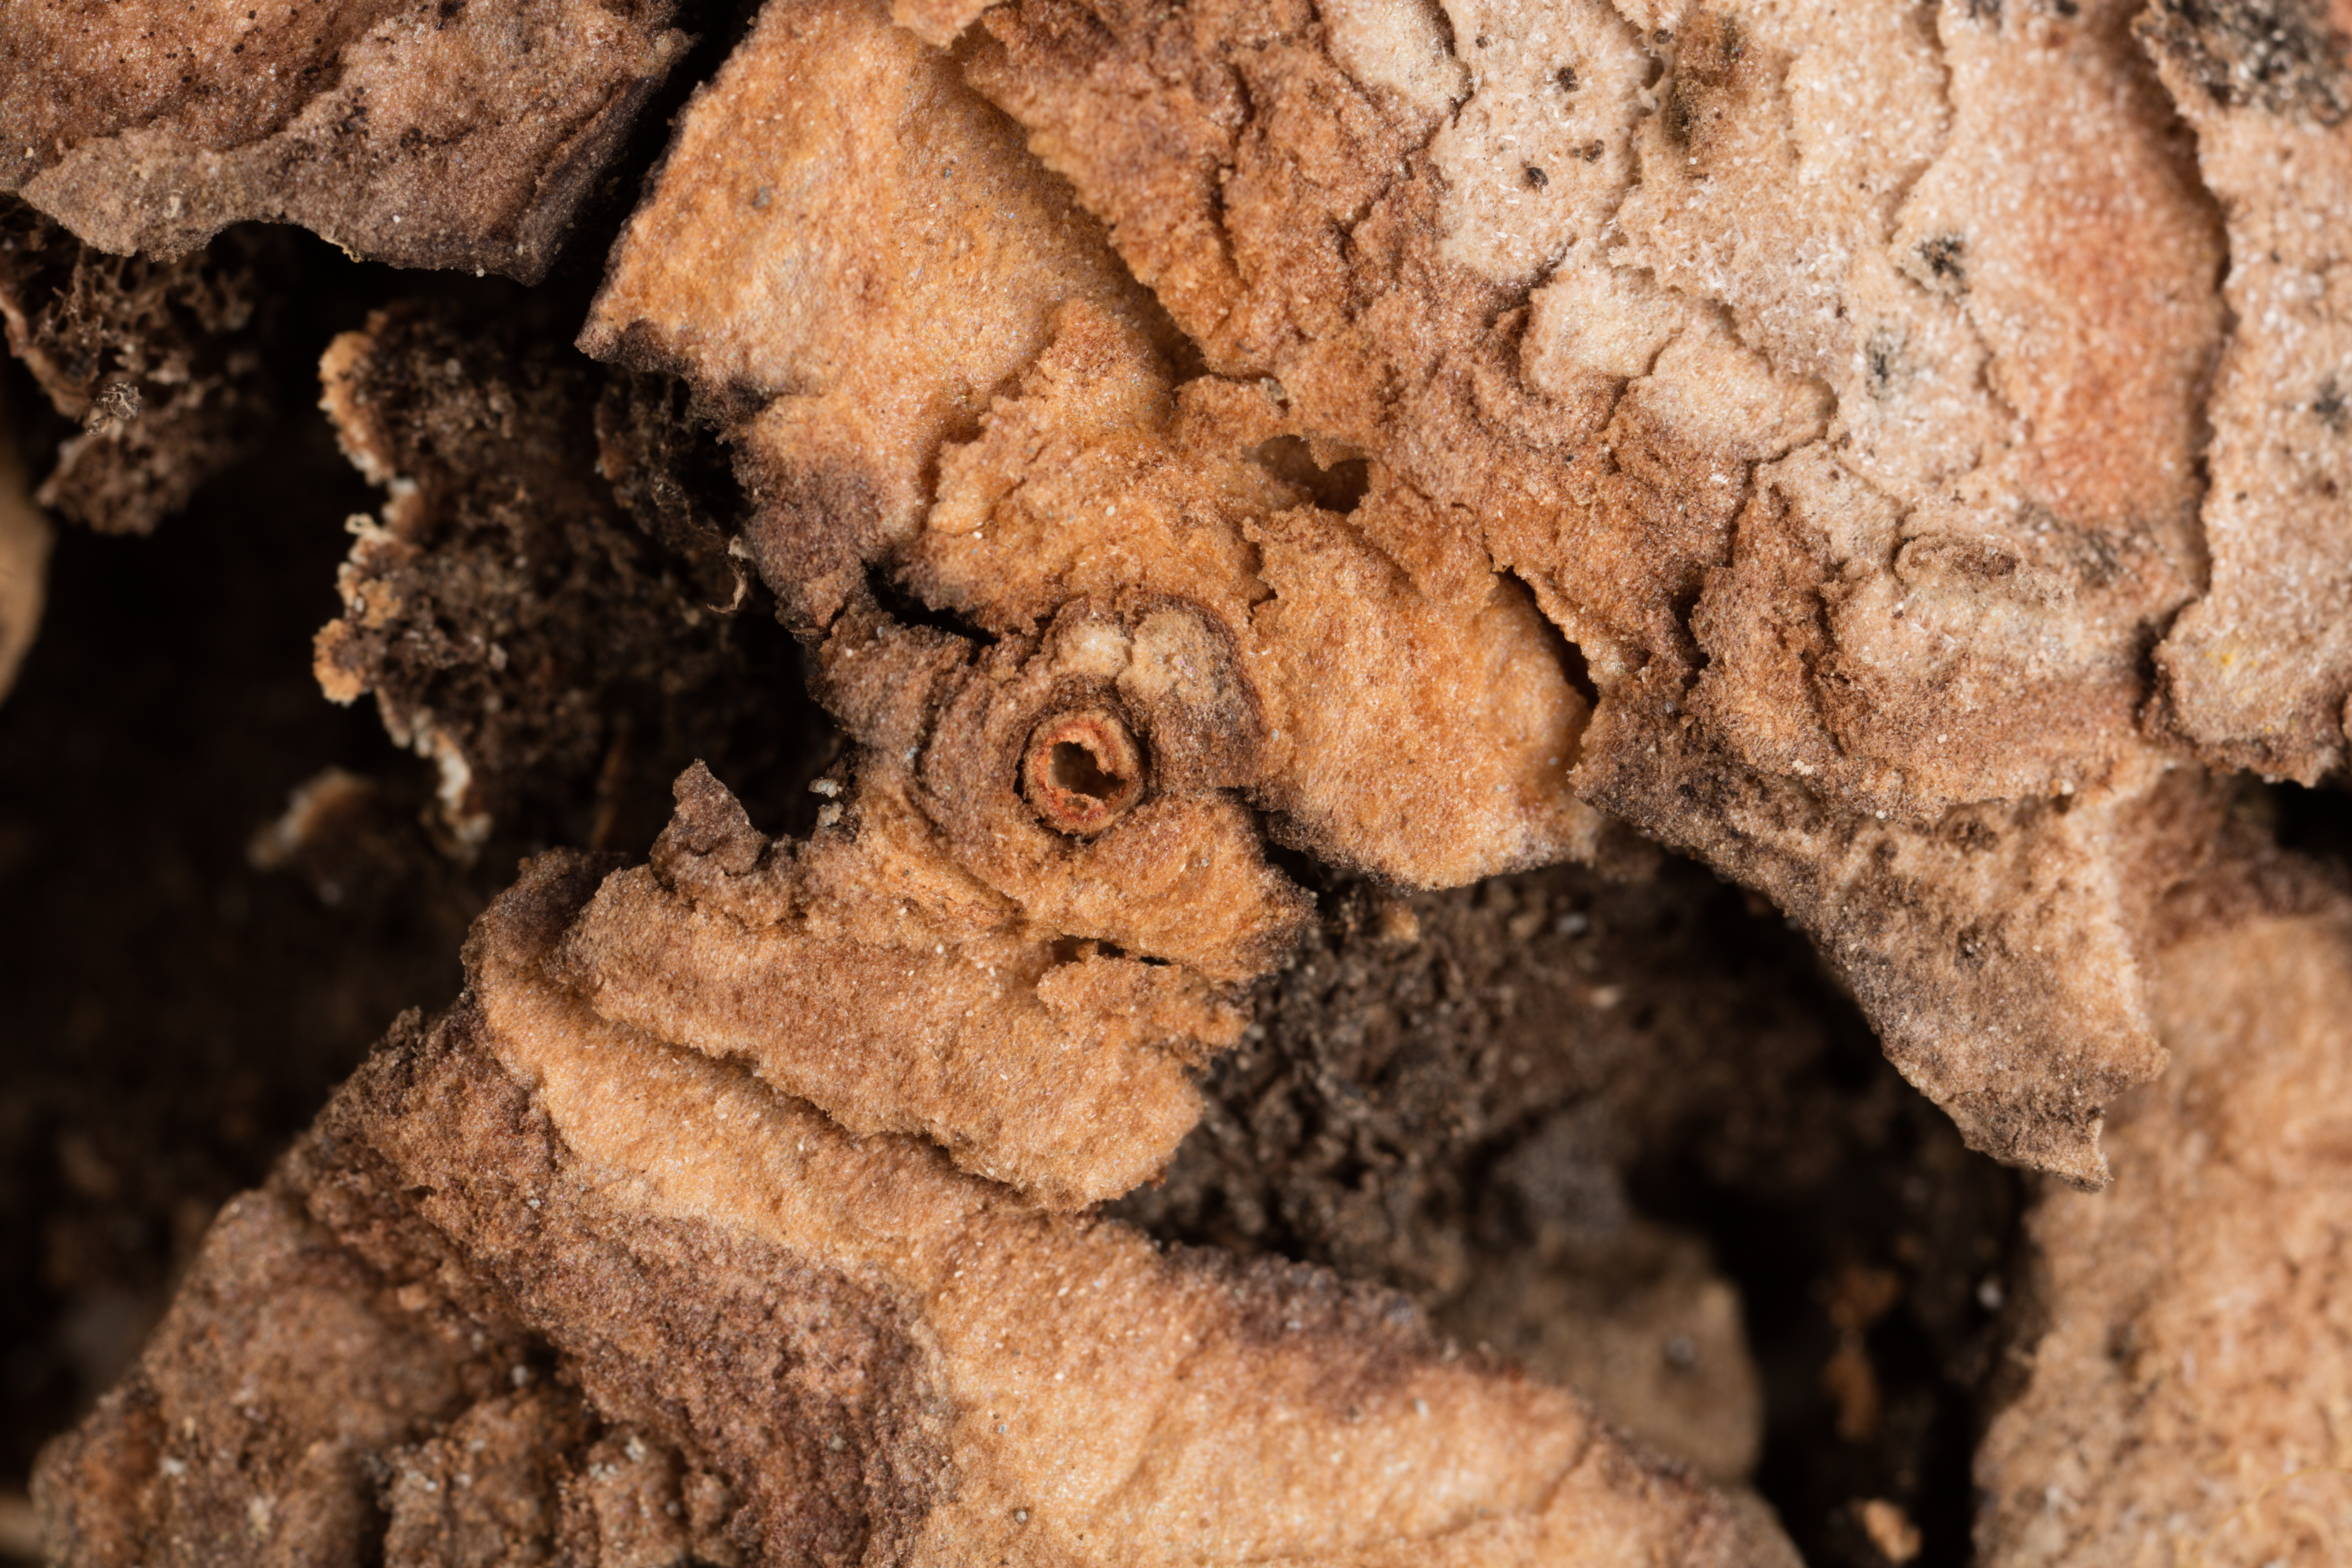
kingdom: Fungi
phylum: Ascomycota
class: Lecanoromycetes
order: Peltigerales
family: Lobariaceae
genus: Pseudocyphellaria
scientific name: Pseudocyphellaria bartlettii
